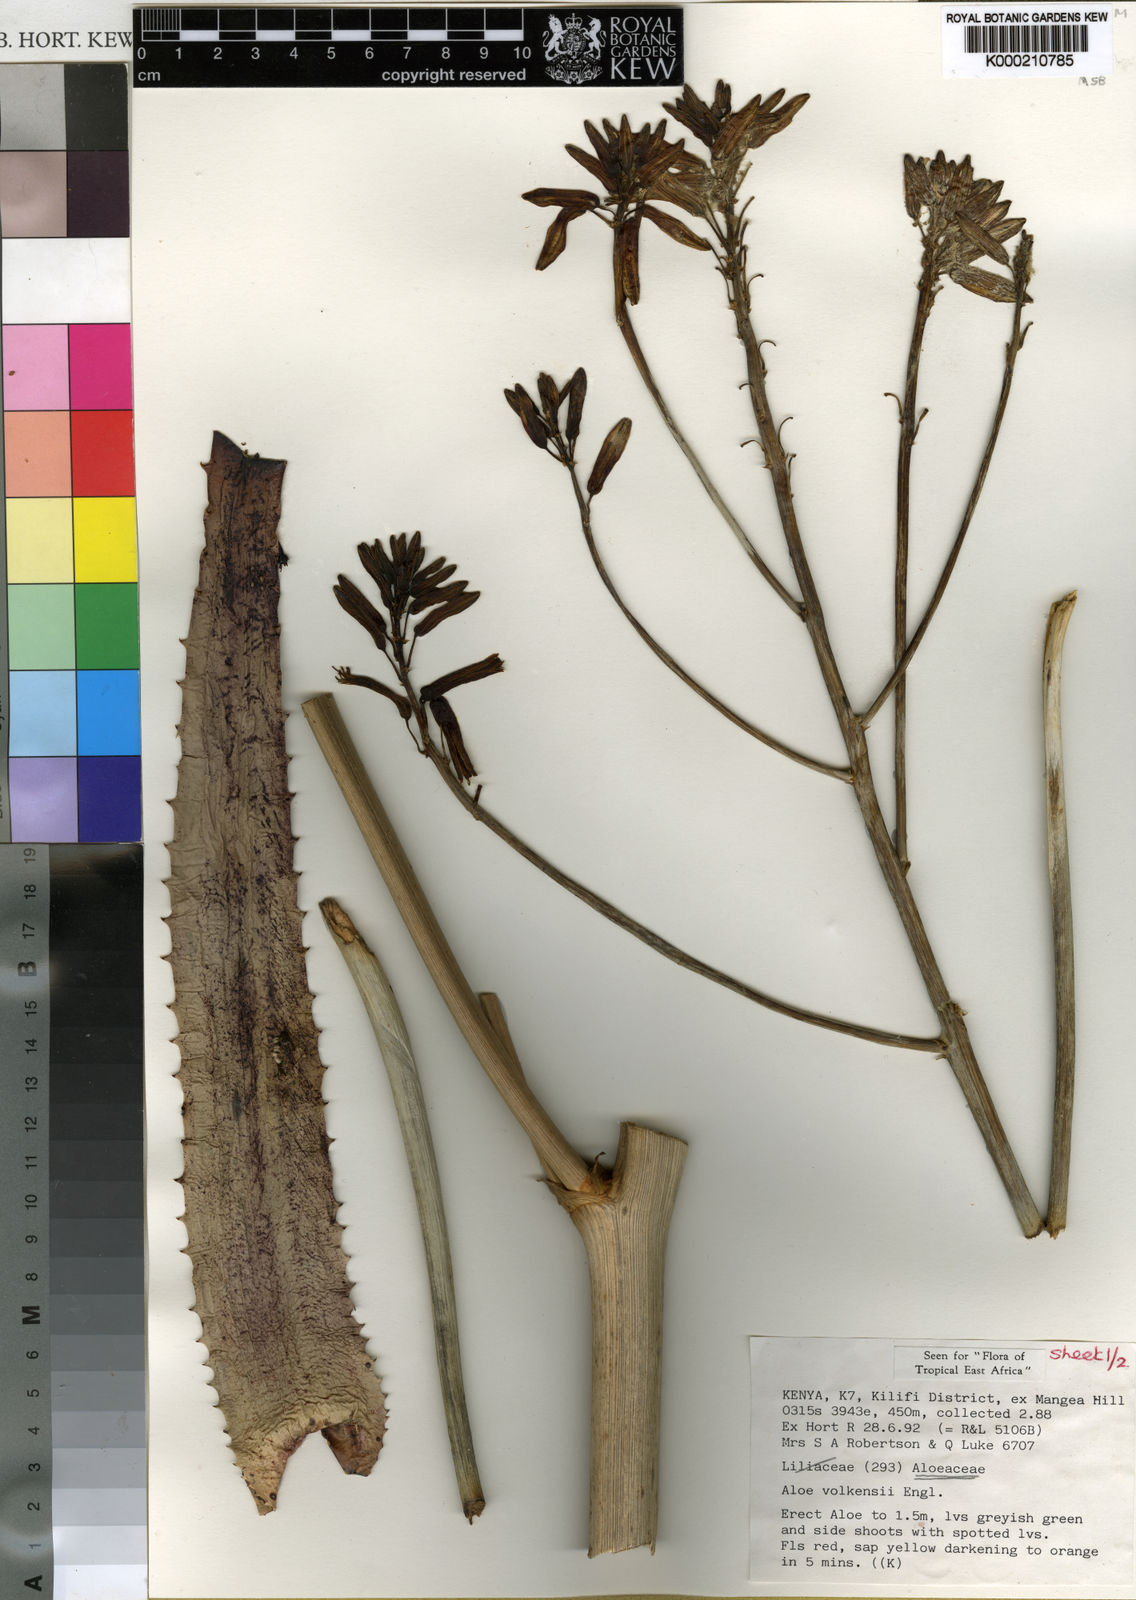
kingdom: Plantae
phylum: Tracheophyta
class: Liliopsida
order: Asparagales
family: Asphodelaceae
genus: Aloe
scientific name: Aloe volkensii
